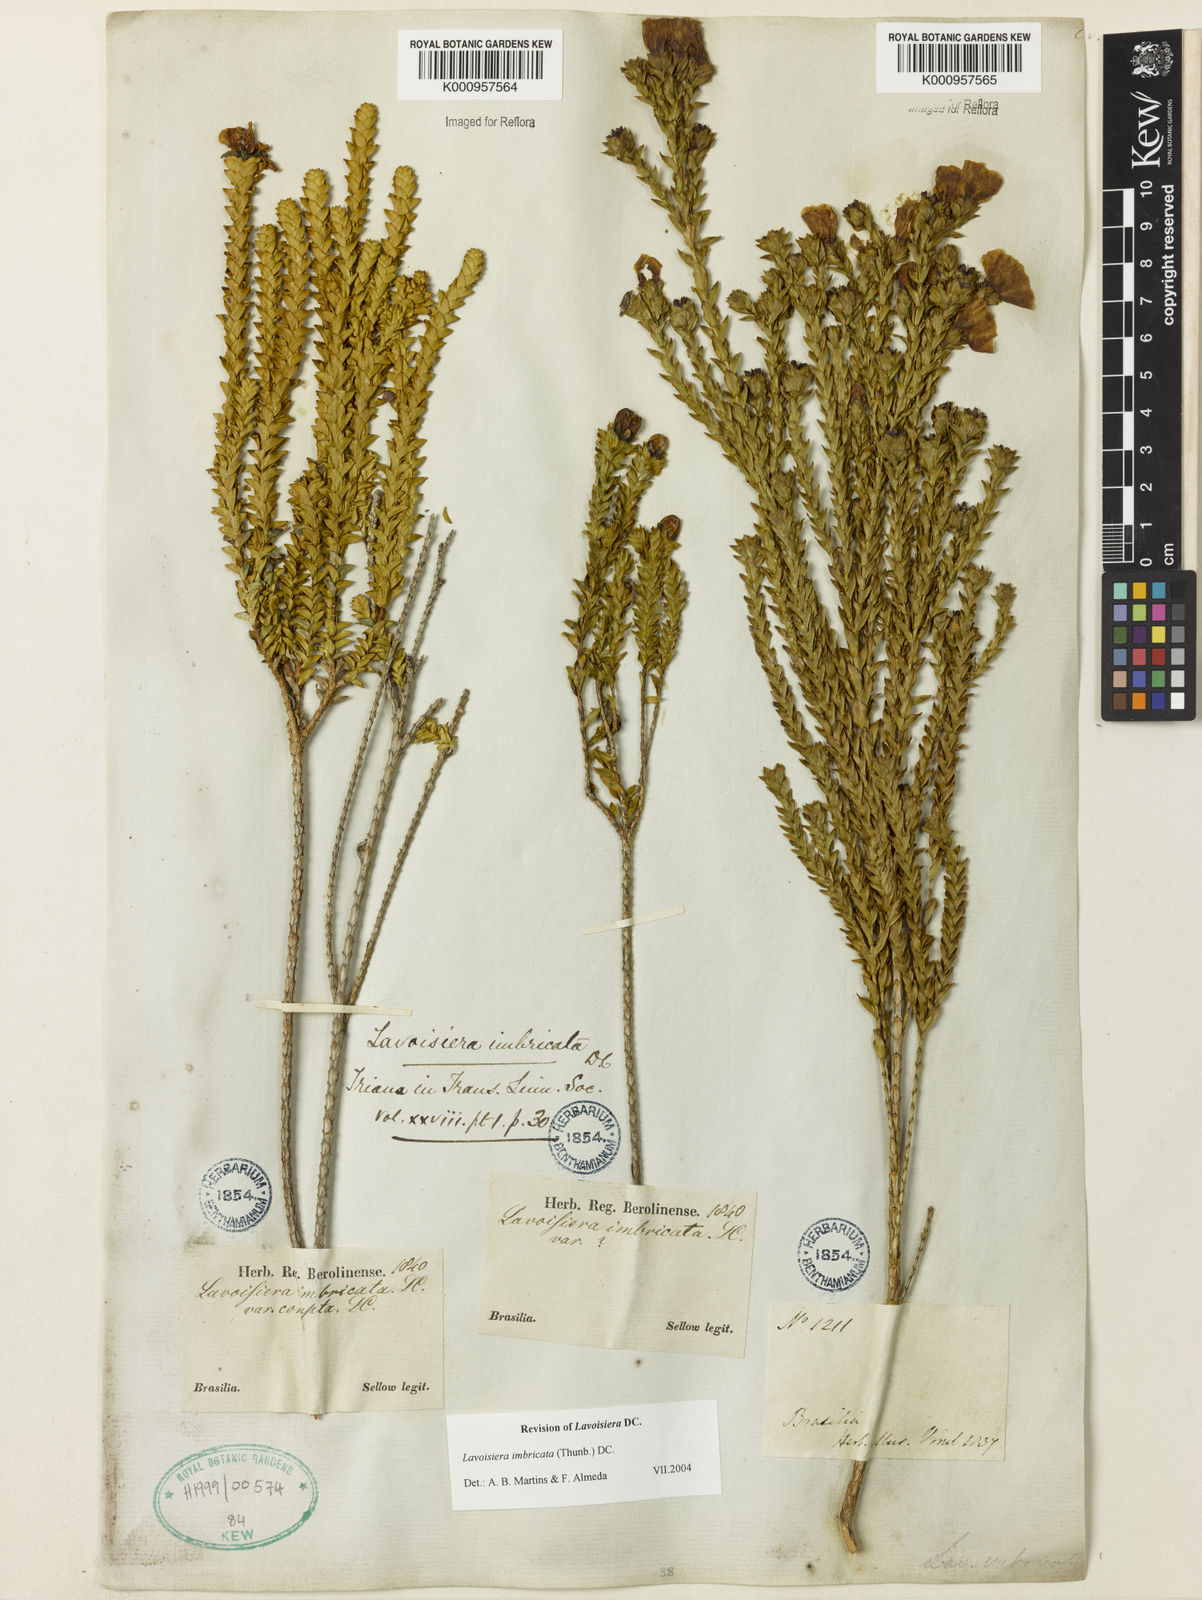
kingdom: Plantae
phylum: Tracheophyta
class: Magnoliopsida
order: Myrtales
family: Melastomataceae
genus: Microlicia
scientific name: Microlicia cataphracta
